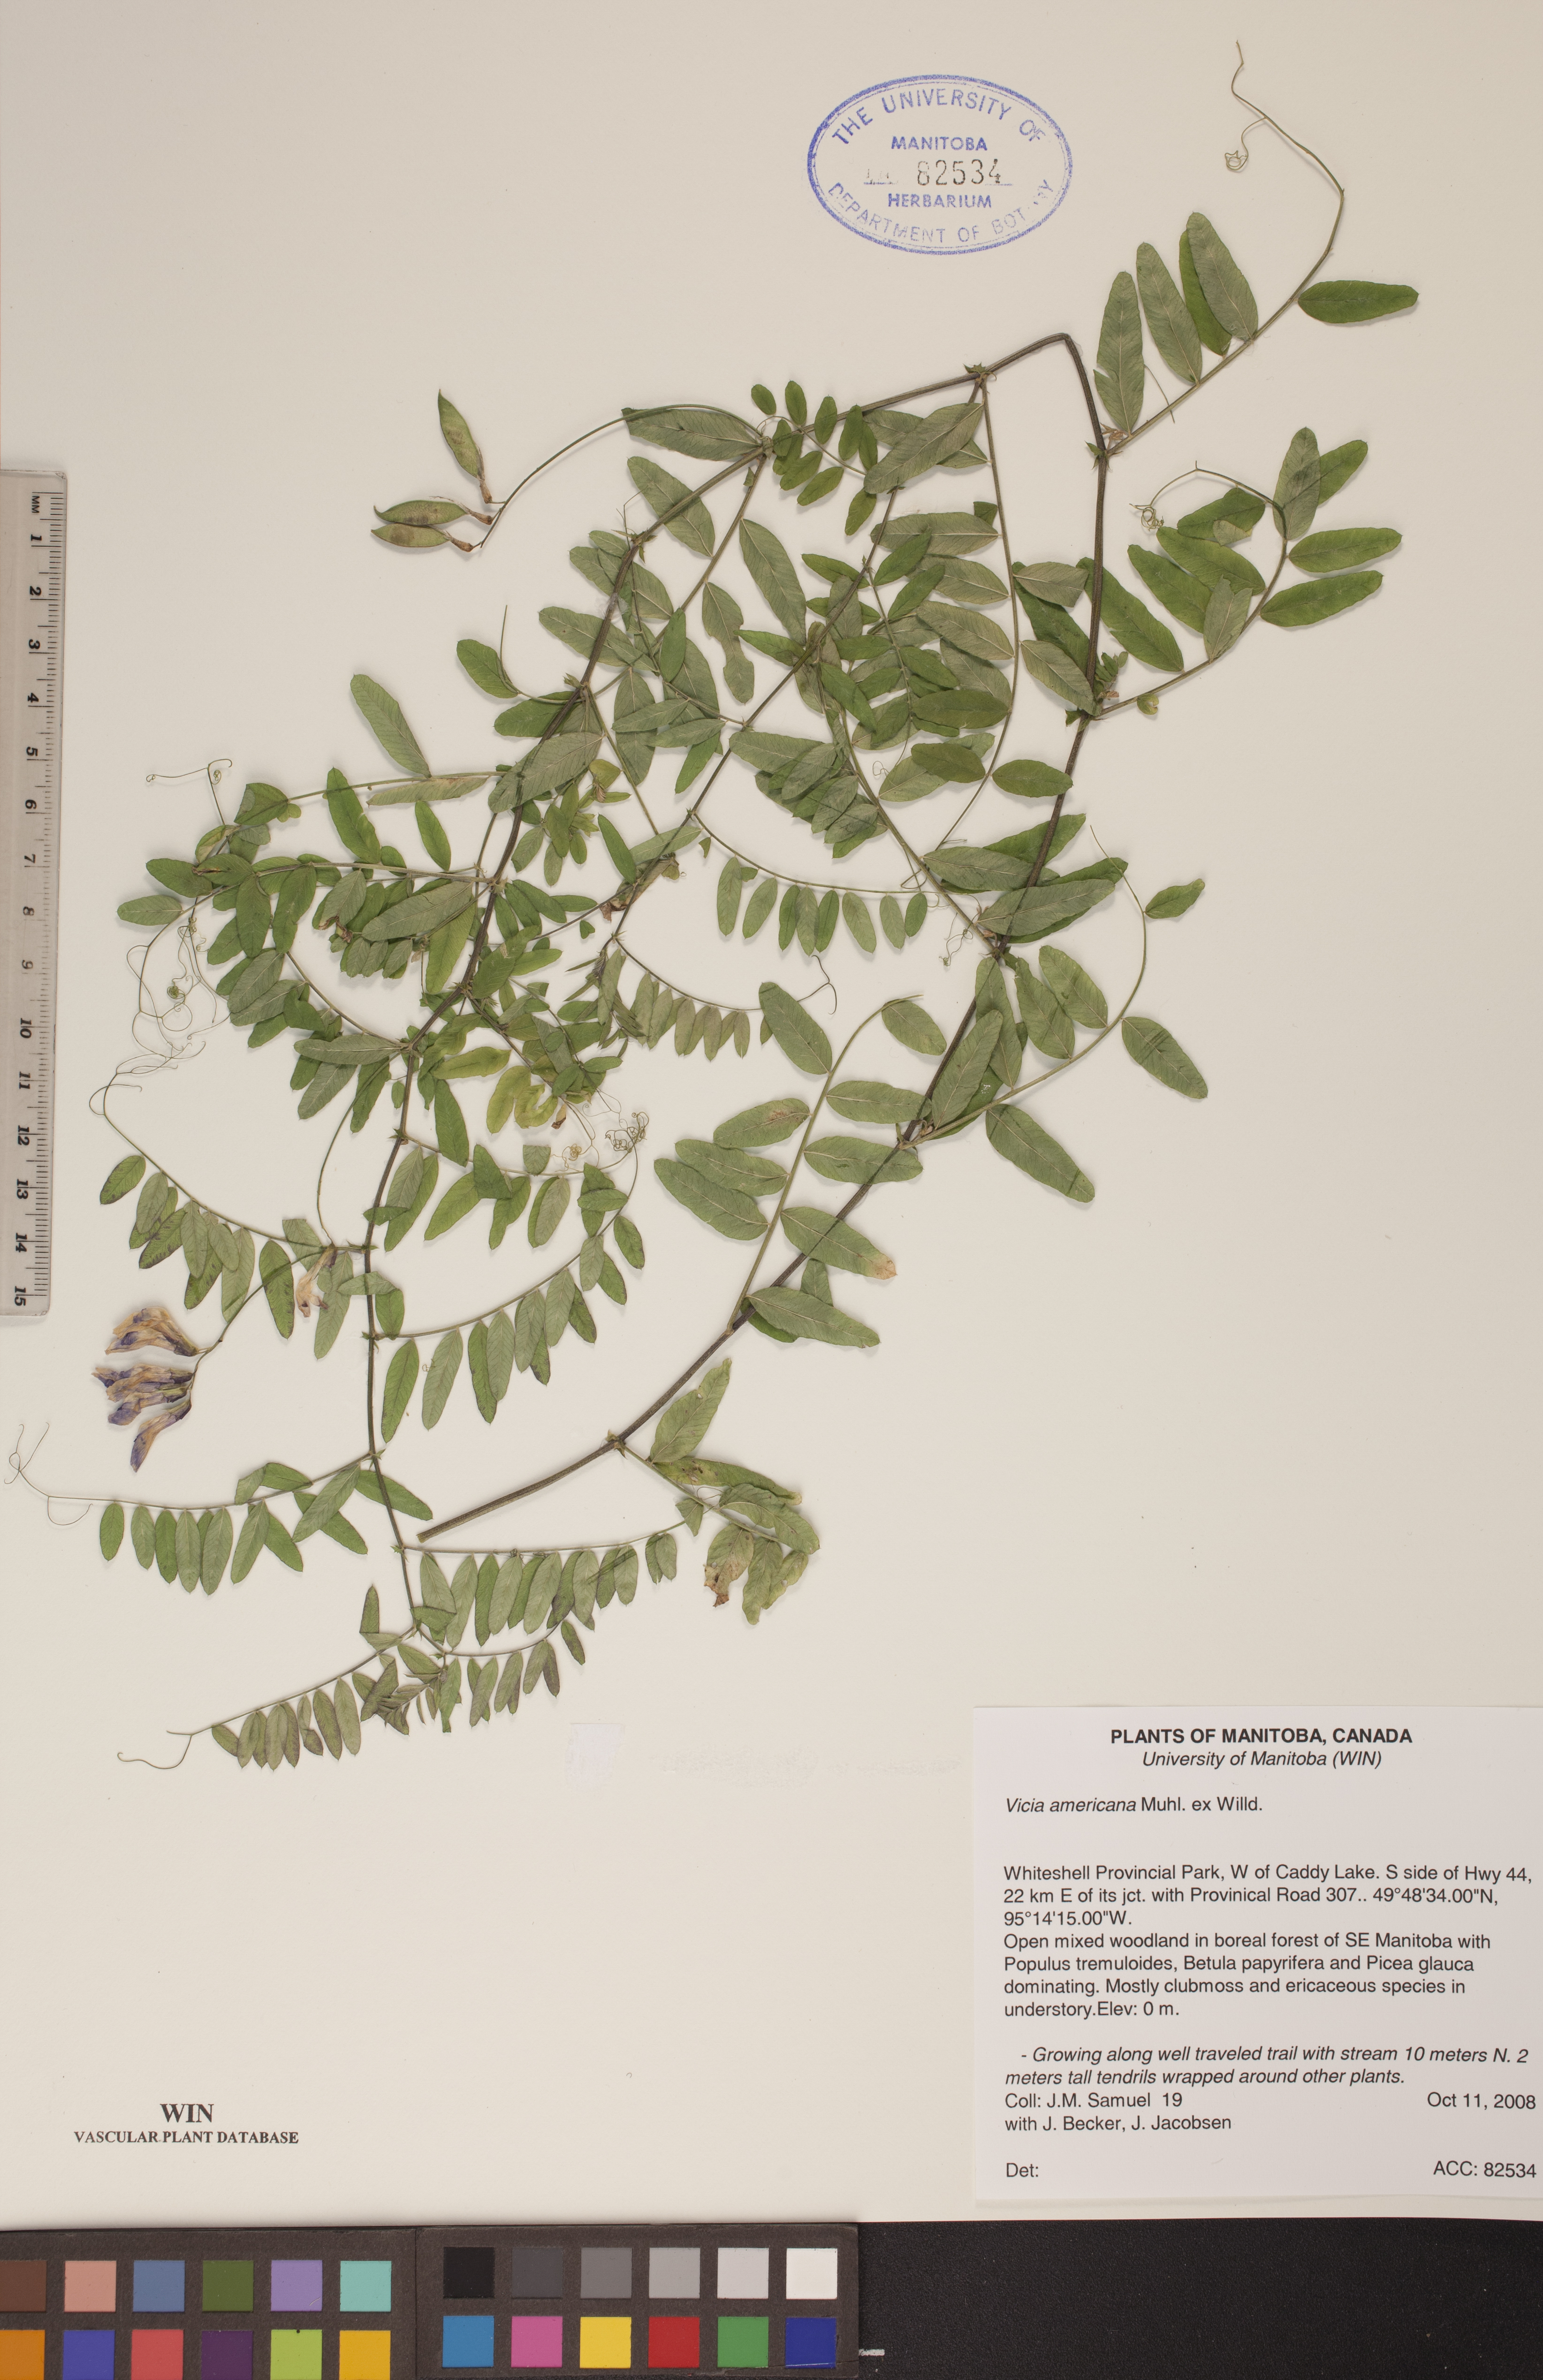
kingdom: Plantae
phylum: Tracheophyta
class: Magnoliopsida
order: Fabales
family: Fabaceae
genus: Vicia
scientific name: Vicia americana
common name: American vetch
